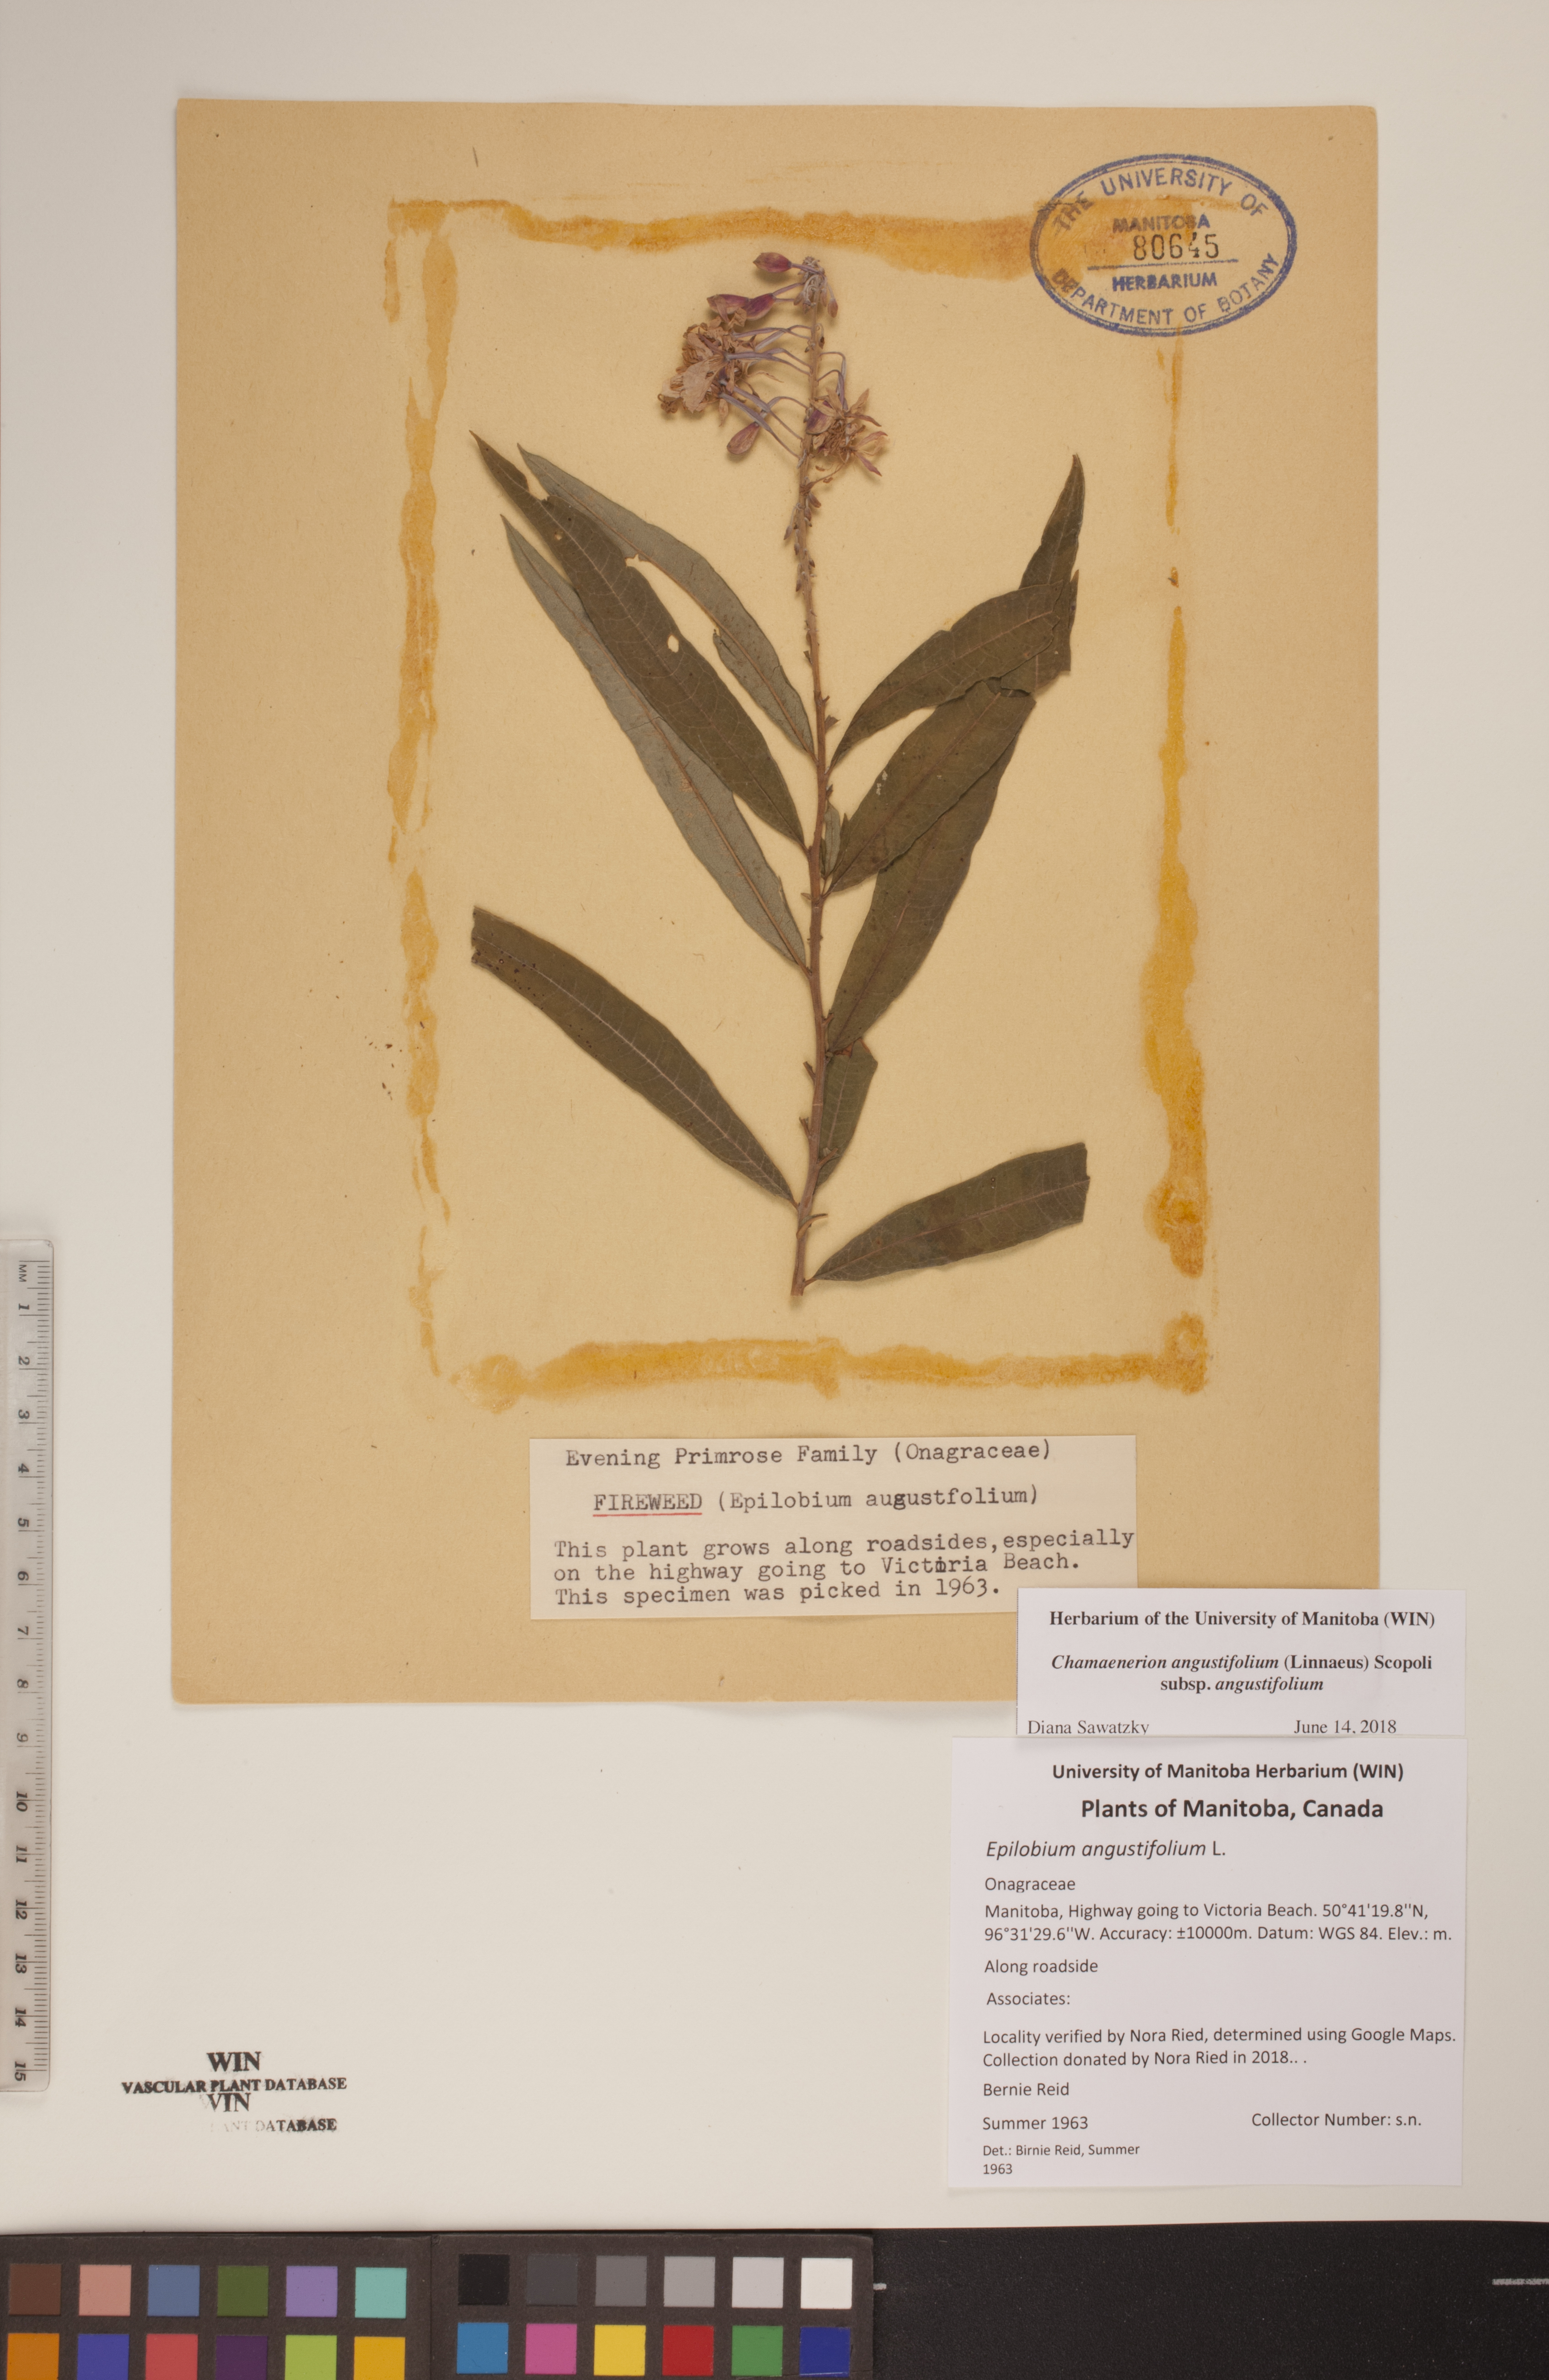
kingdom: Plantae
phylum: Tracheophyta
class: Magnoliopsida
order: Myrtales
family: Onagraceae
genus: Chamaenerion
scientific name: Chamaenerion angustifolium
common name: Fireweed
